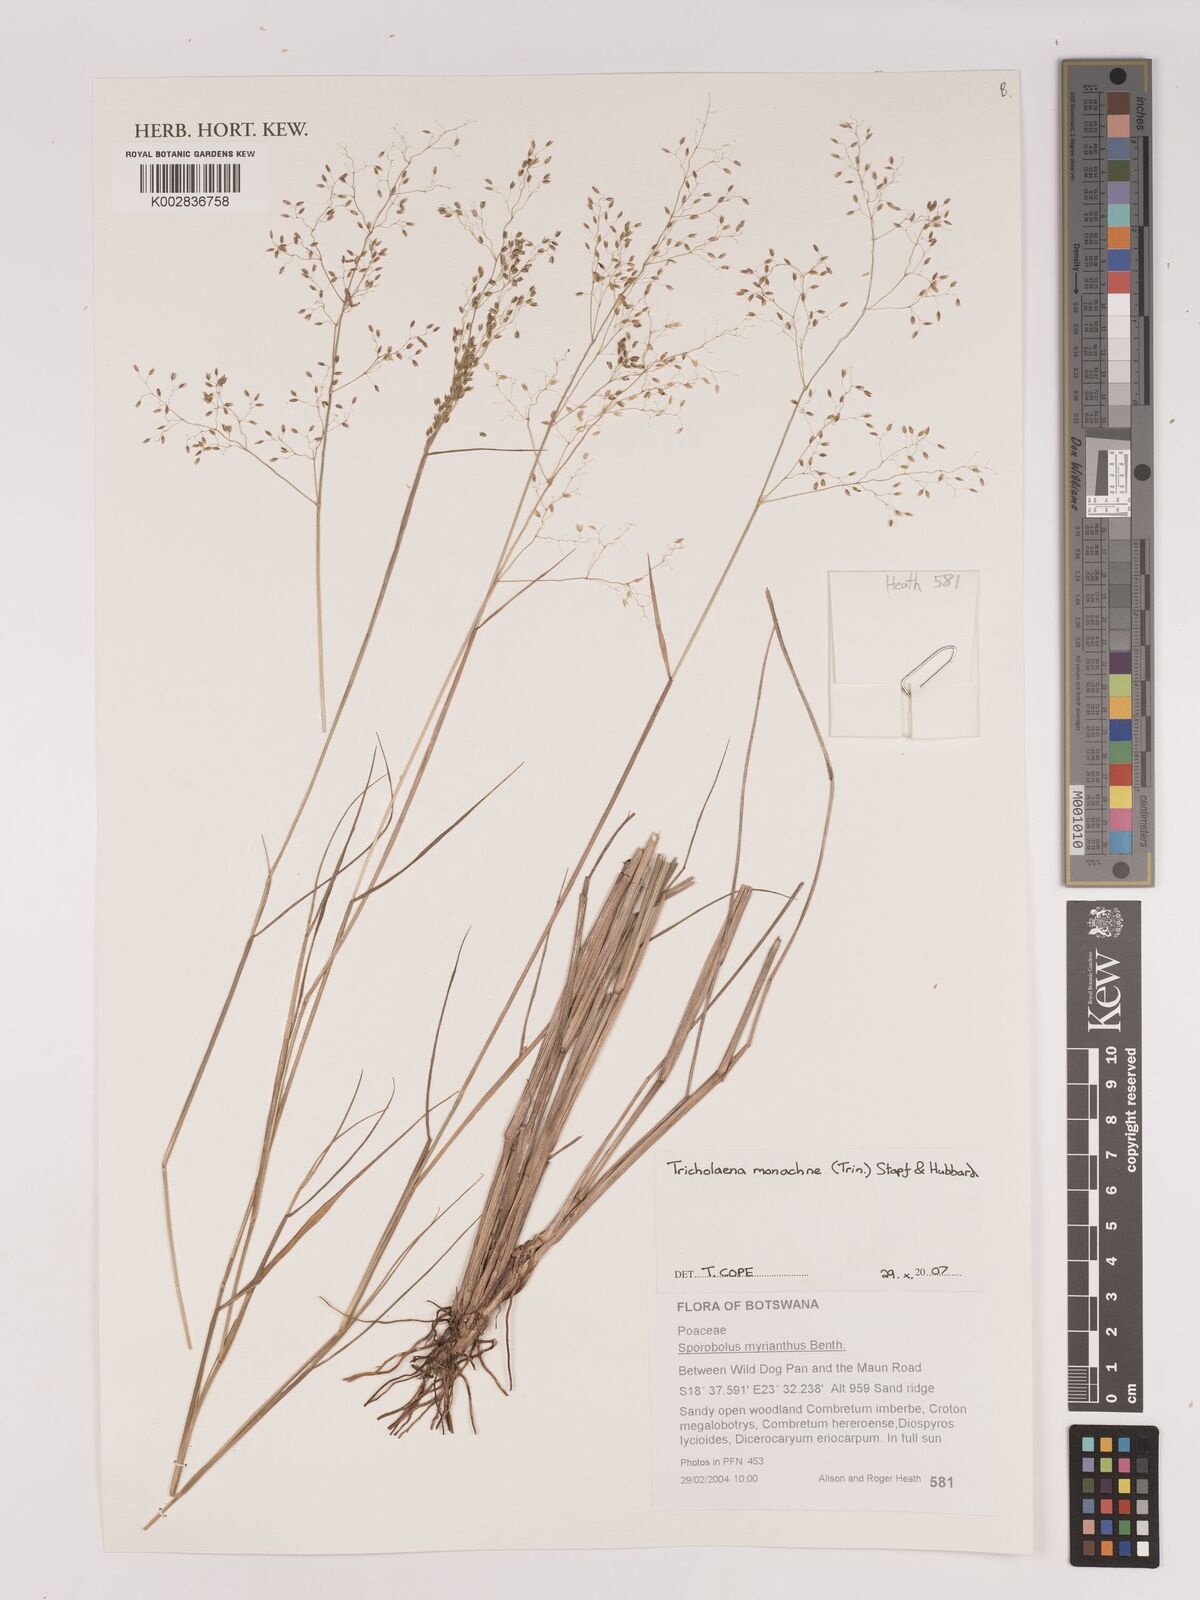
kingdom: Plantae
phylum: Tracheophyta
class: Liliopsida
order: Poales
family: Poaceae
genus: Tricholaena
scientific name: Tricholaena monachne
